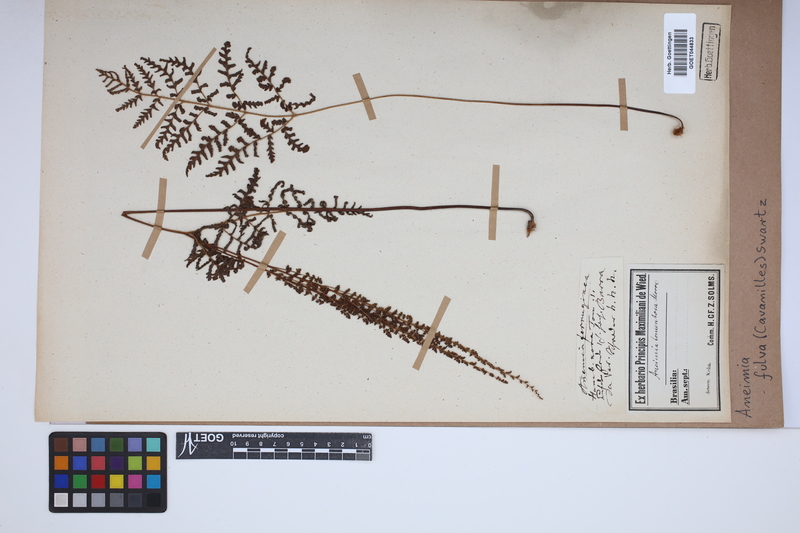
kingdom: Plantae
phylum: Tracheophyta
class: Polypodiopsida
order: Schizaeales
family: Anemiaceae
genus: Anemia
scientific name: Anemia ferruginea
